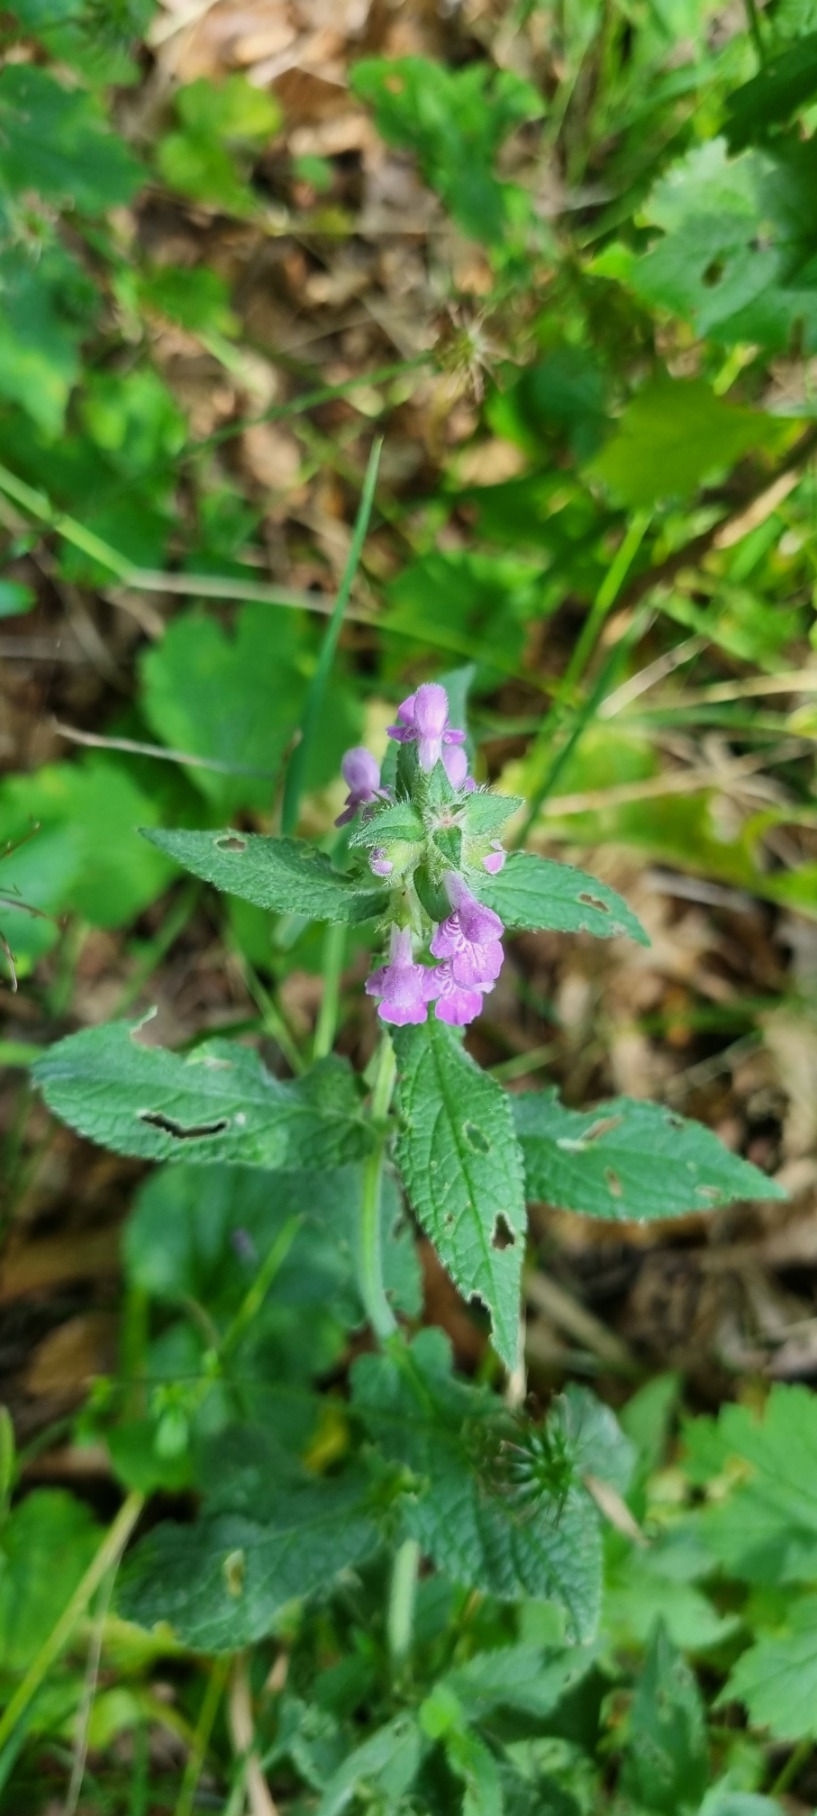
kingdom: Plantae
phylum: Tracheophyta
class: Magnoliopsida
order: Lamiales
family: Lamiaceae
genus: Stachys
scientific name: Stachys palustris
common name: Kær-galtetand
